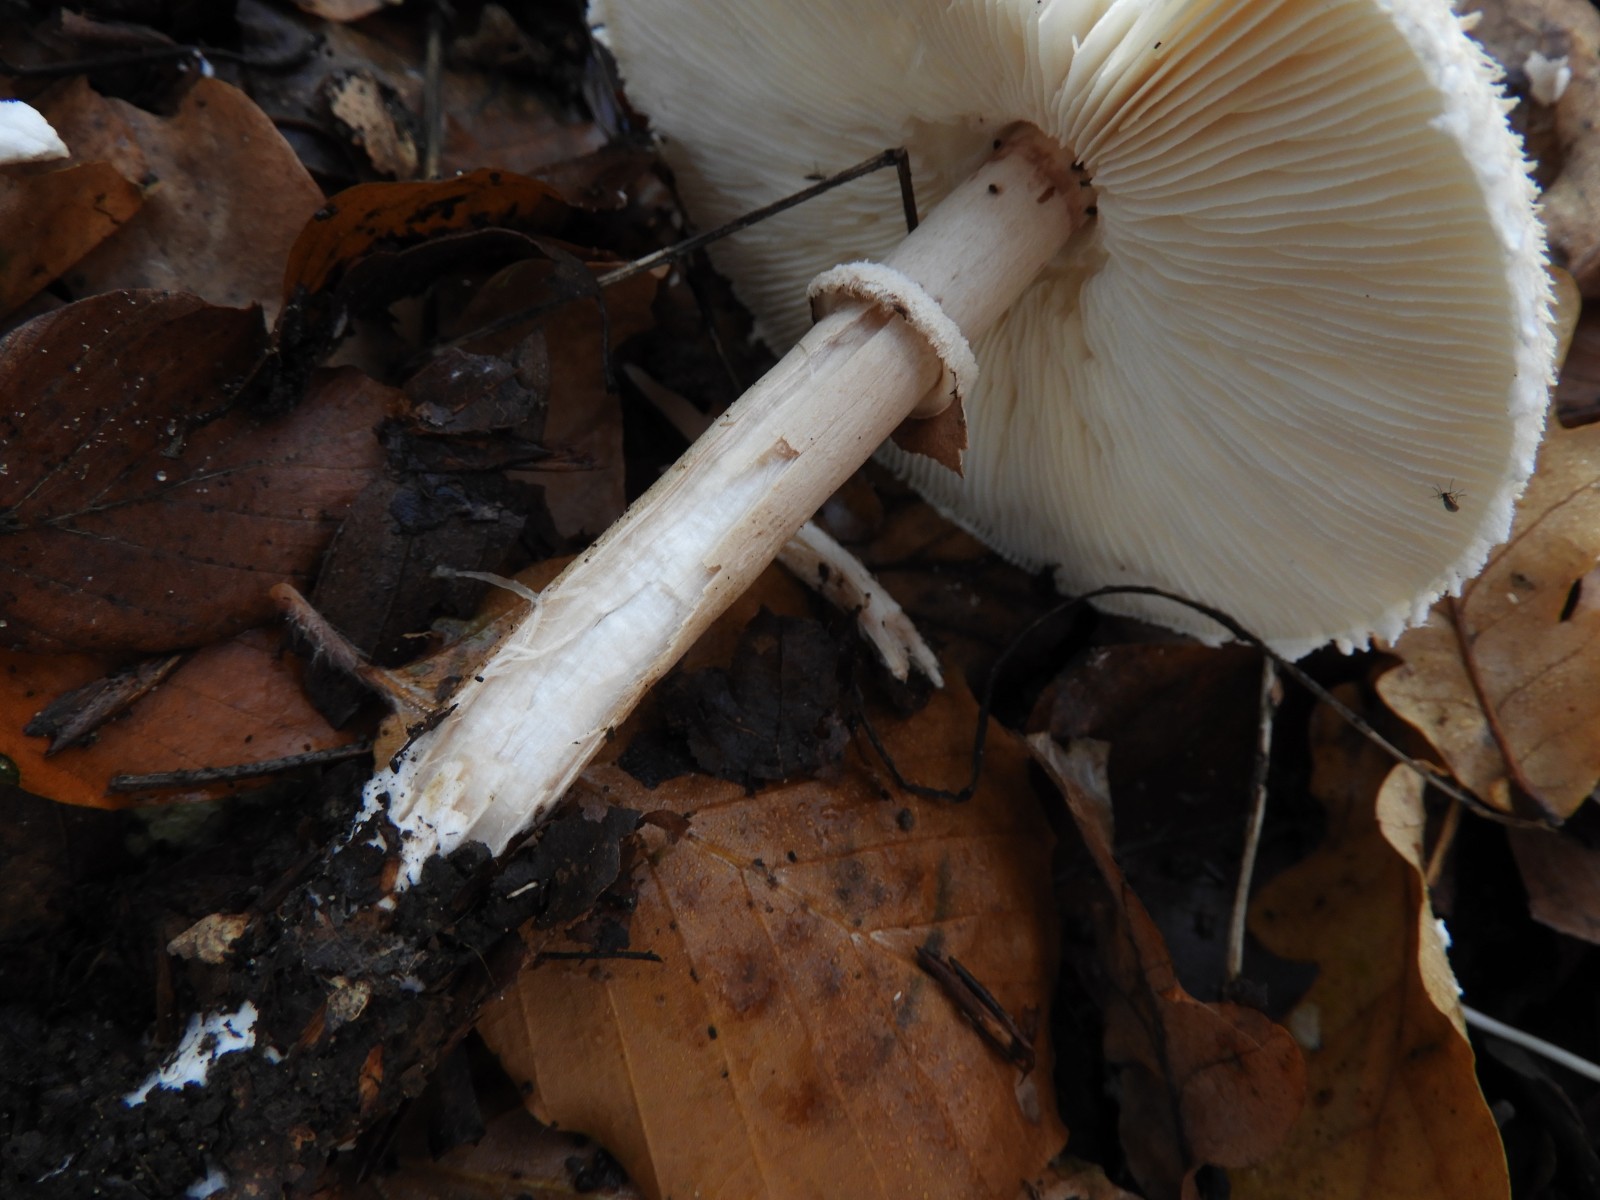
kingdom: Fungi
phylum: Basidiomycota
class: Agaricomycetes
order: Agaricales
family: Agaricaceae
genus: Macrolepiota
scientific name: Macrolepiota mastoidea
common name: puklet kæmpeparasolhat
